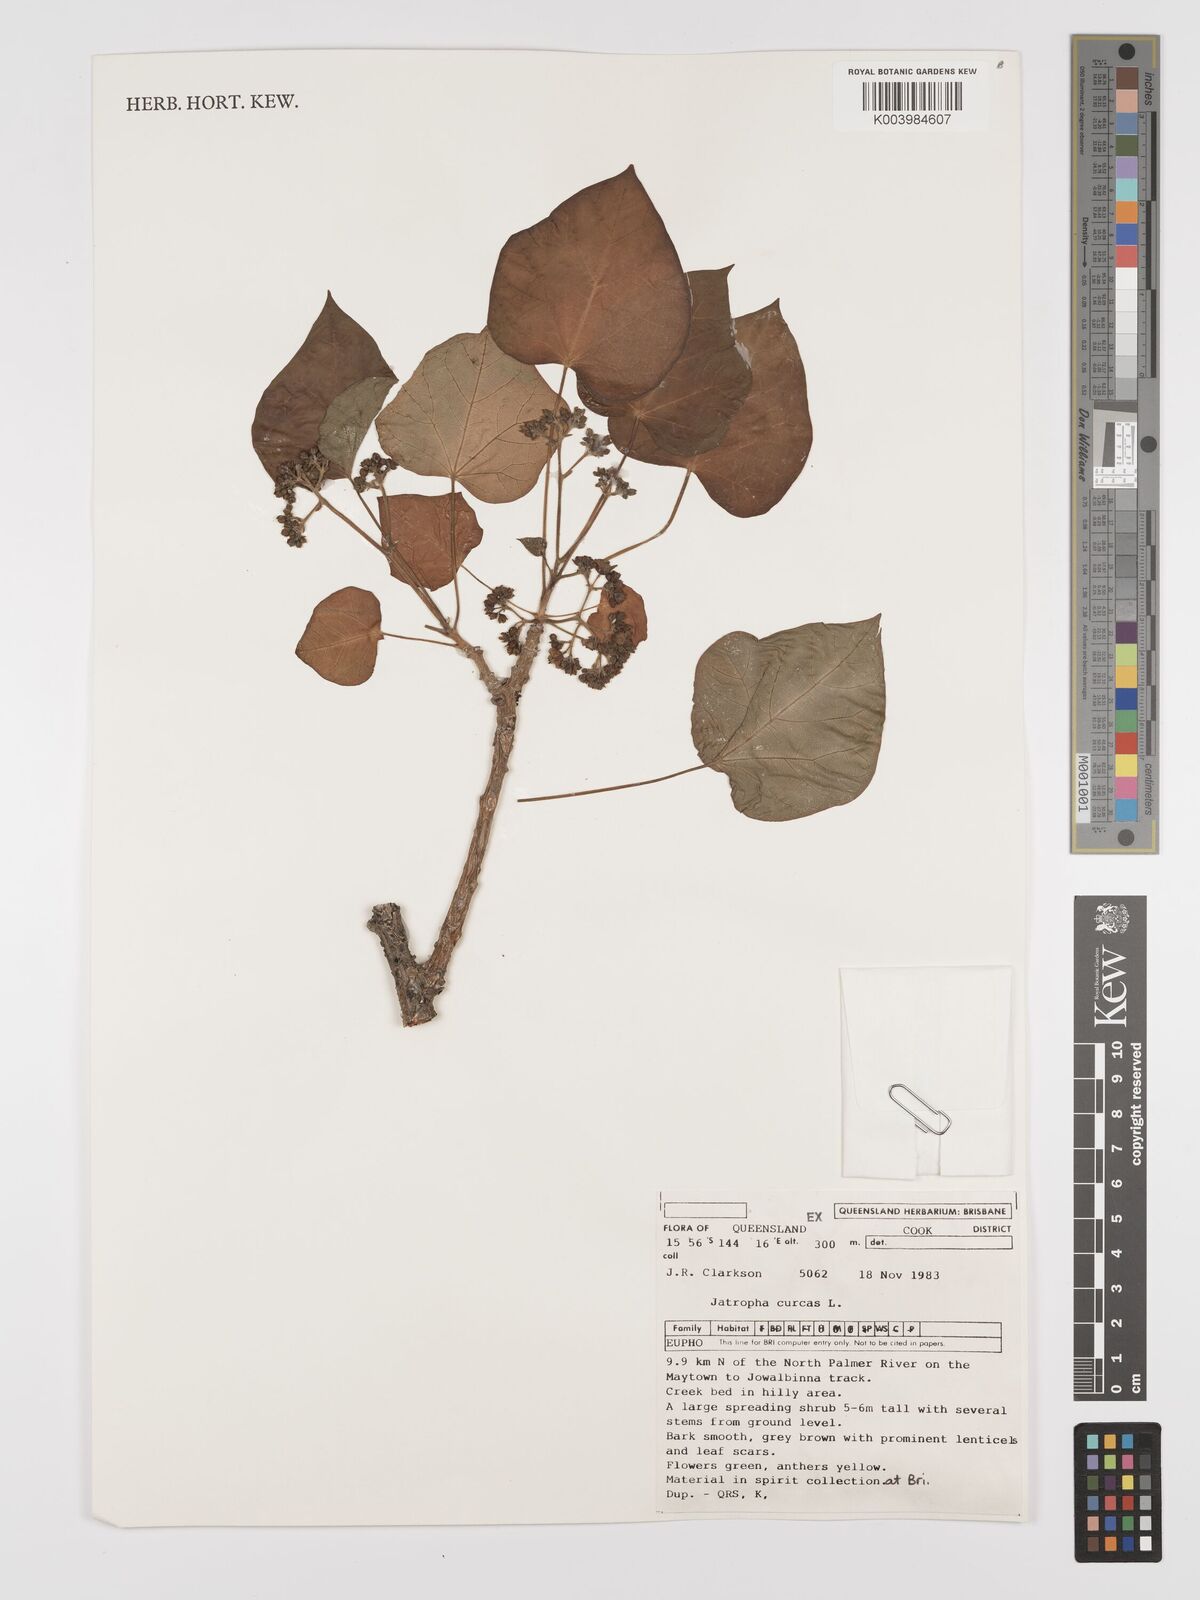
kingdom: Plantae
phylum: Tracheophyta
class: Magnoliopsida
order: Malpighiales
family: Euphorbiaceae
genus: Jatropha
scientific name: Jatropha curcas
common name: Barbados nut
